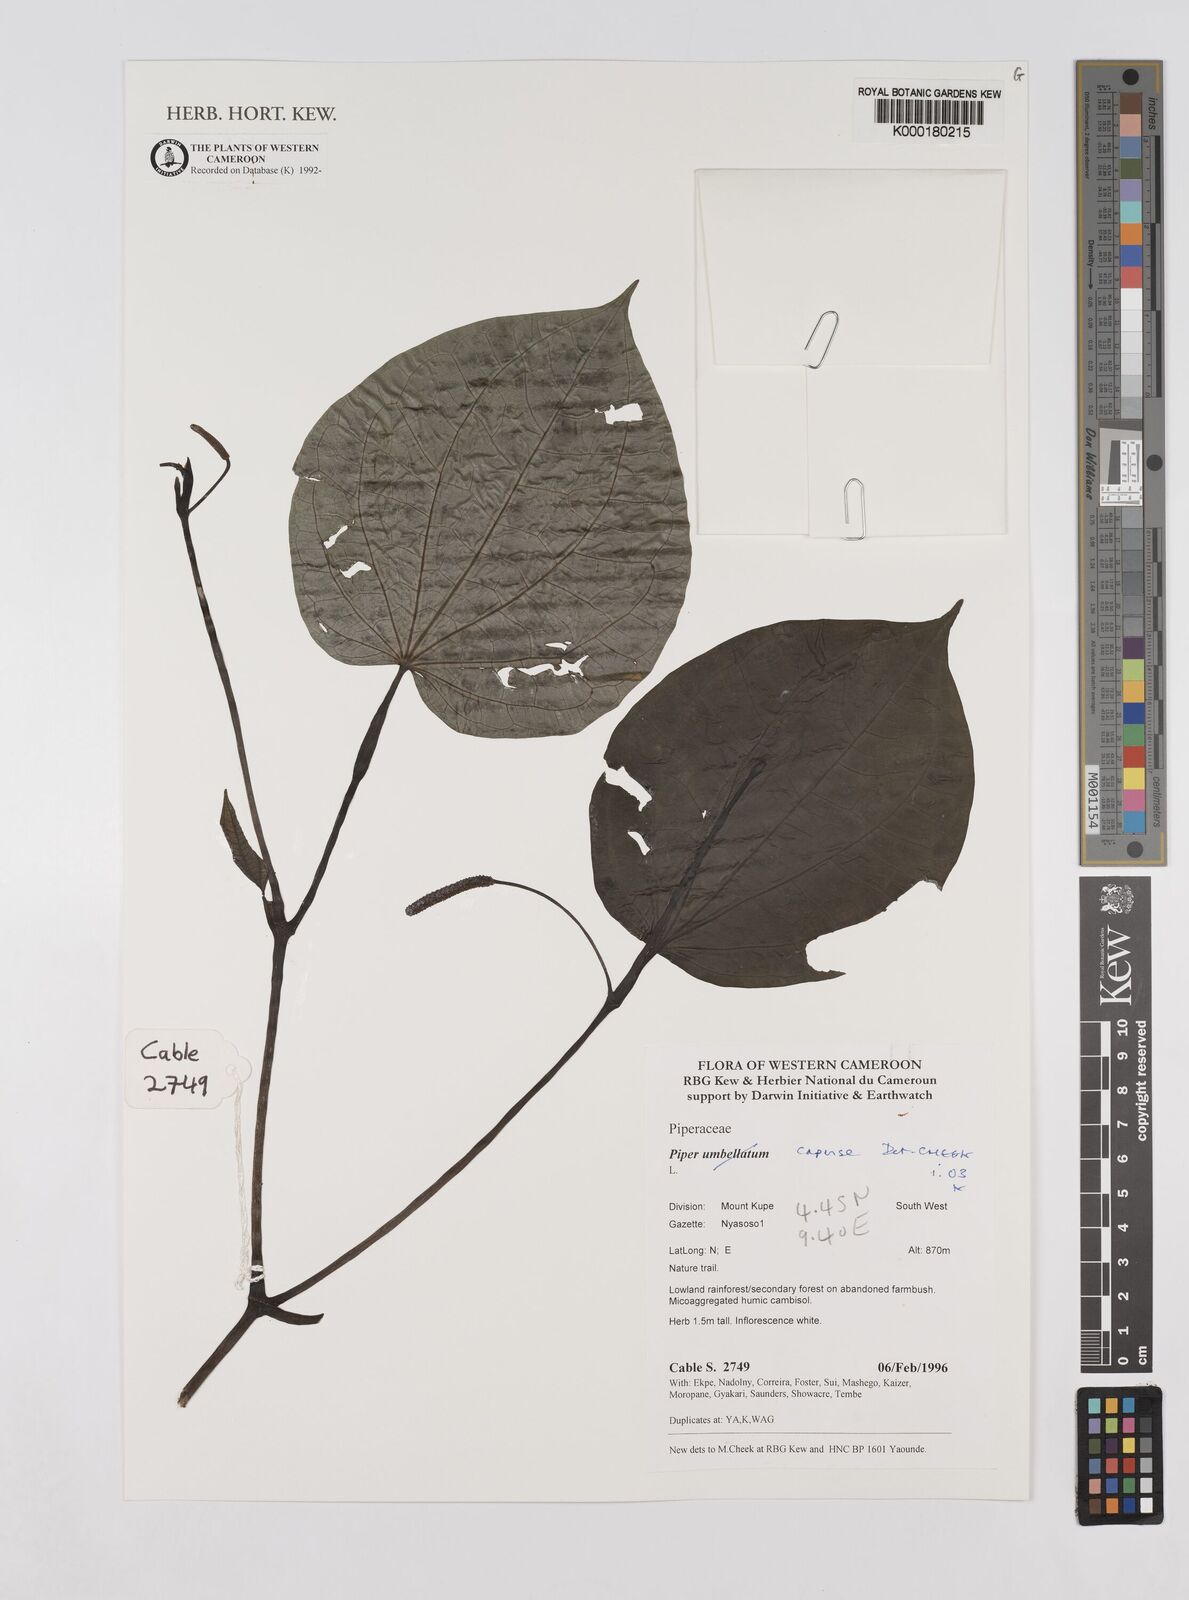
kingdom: Plantae
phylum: Tracheophyta
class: Magnoliopsida
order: Piperales
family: Piperaceae
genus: Piper
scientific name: Piper capense
